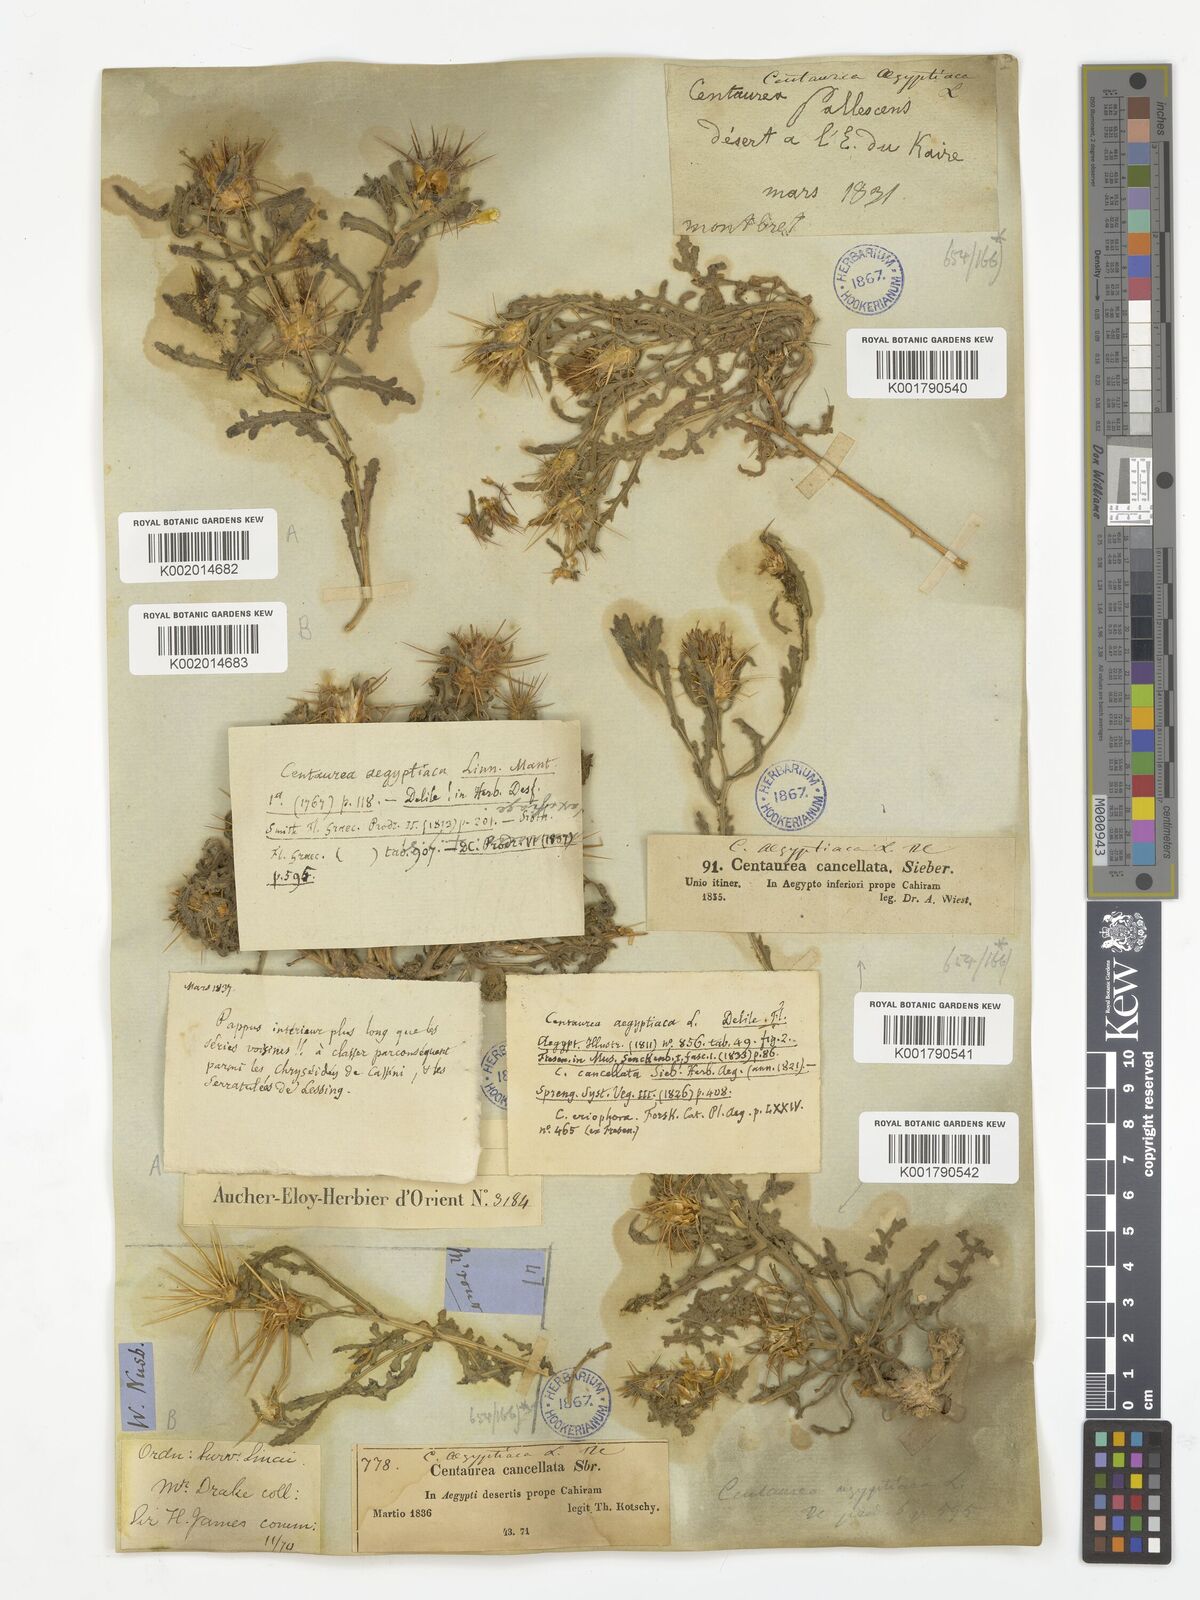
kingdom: Plantae
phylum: Tracheophyta
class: Magnoliopsida
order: Asterales
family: Asteraceae
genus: Centaurea
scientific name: Centaurea aegyptiaca
